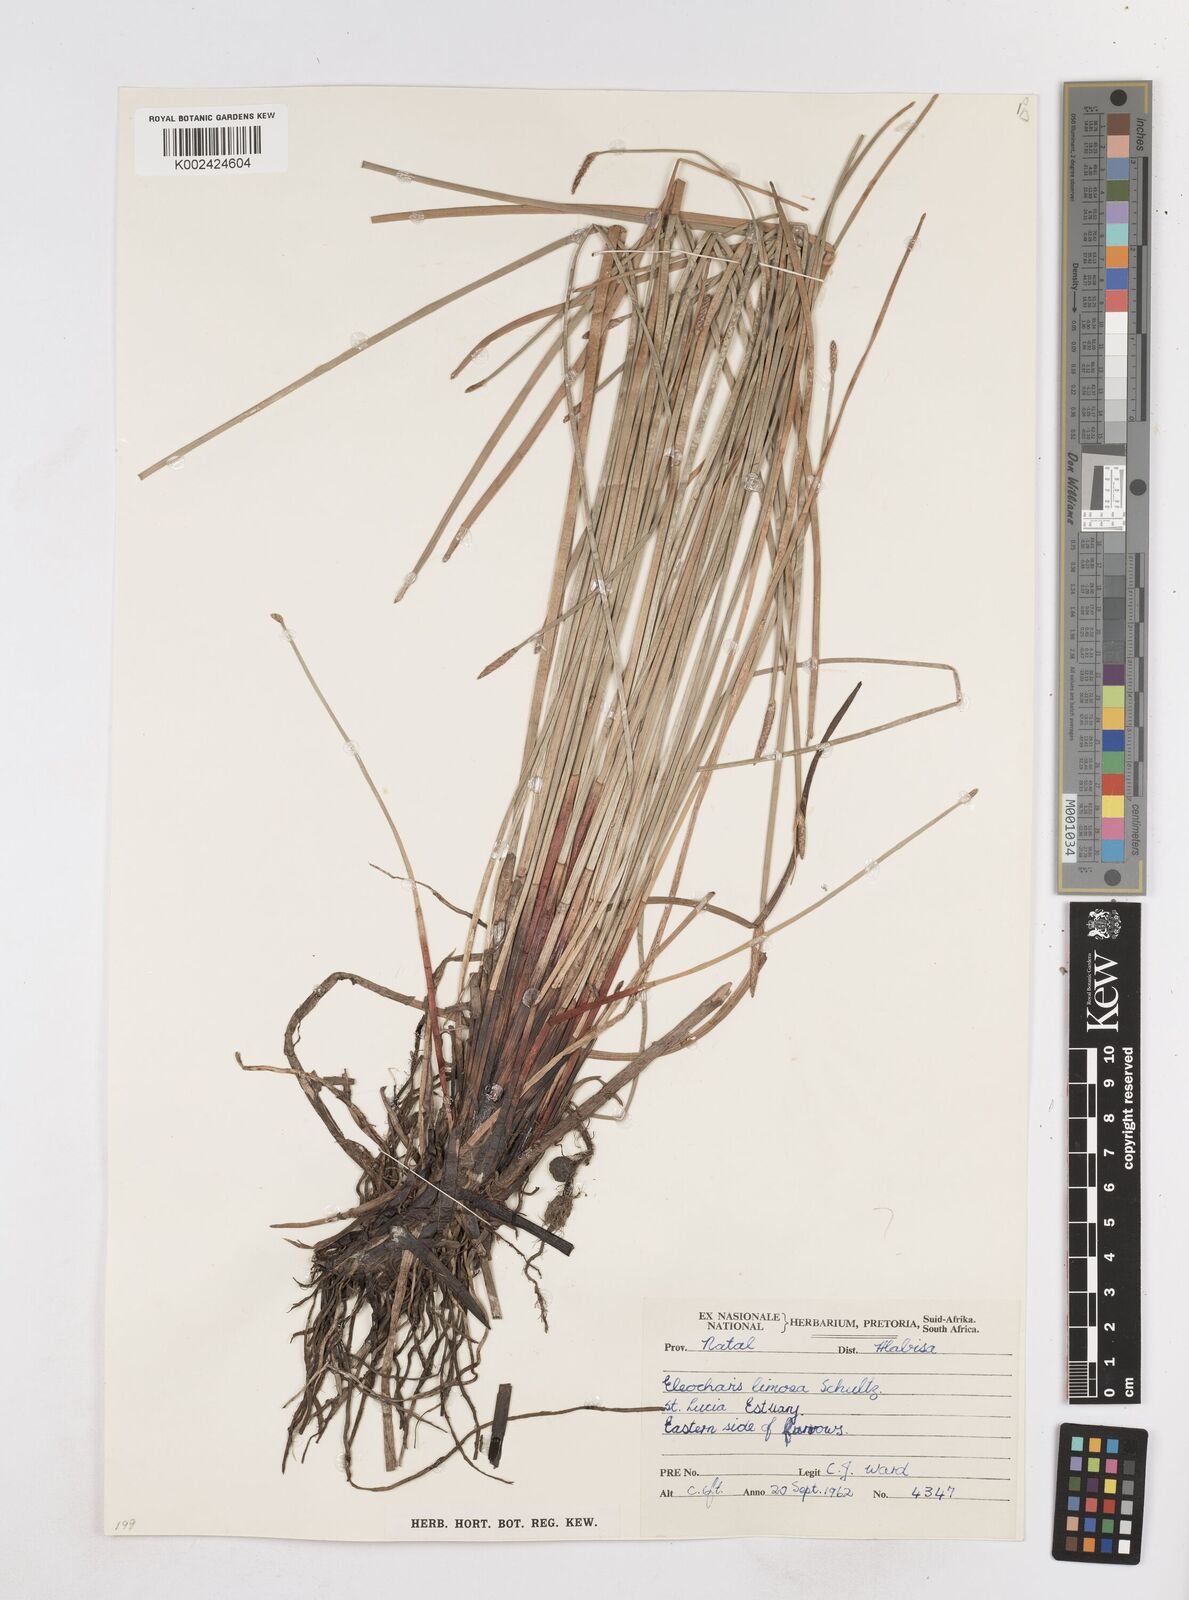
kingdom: Plantae
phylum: Tracheophyta
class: Liliopsida
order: Poales
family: Cyperaceae
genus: Eleocharis
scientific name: Eleocharis limosa
